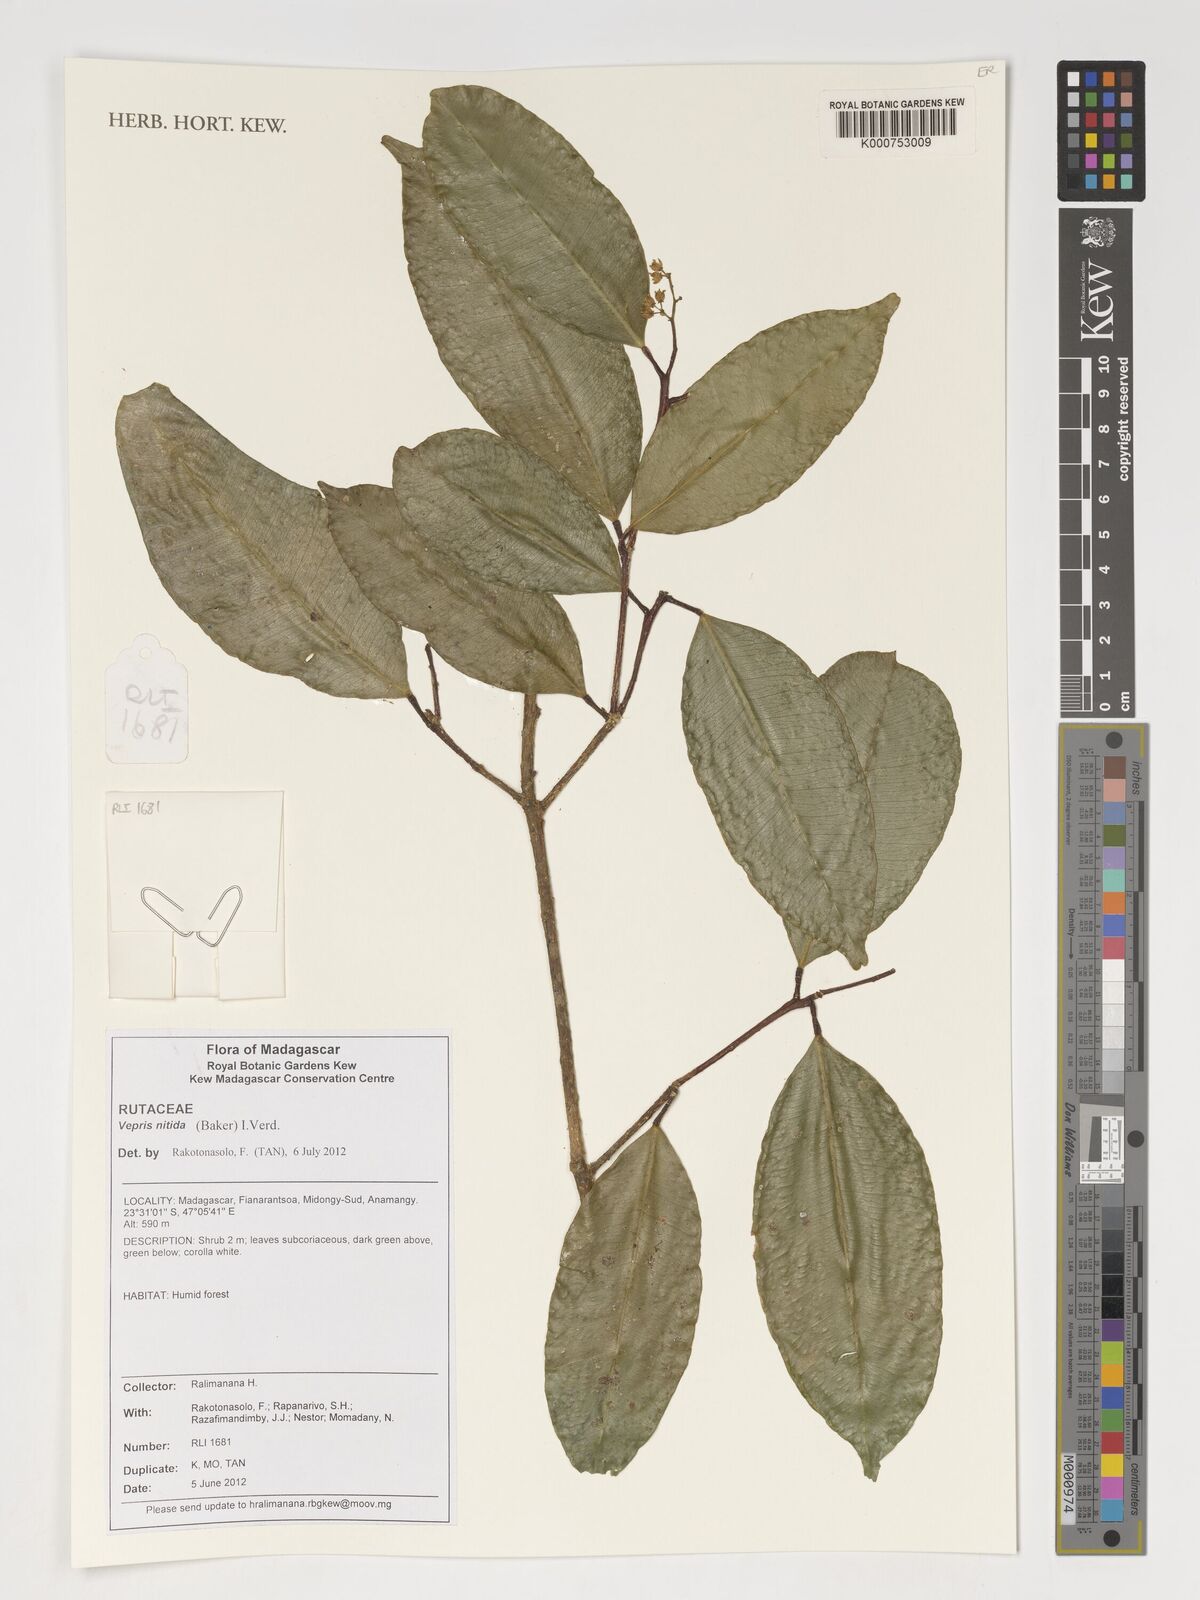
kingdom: Plantae
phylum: Tracheophyta
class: Magnoliopsida
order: Sapindales
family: Rutaceae
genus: Vepris
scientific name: Vepris nitida
